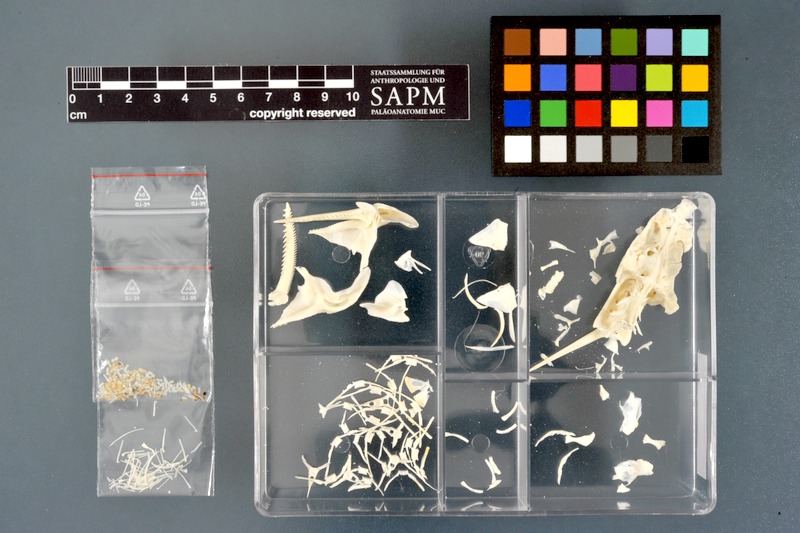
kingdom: Animalia
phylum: Chordata
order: Siluriformes
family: Mochokidae
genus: Synodontis
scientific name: Synodontis nigrita
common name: Catfish
